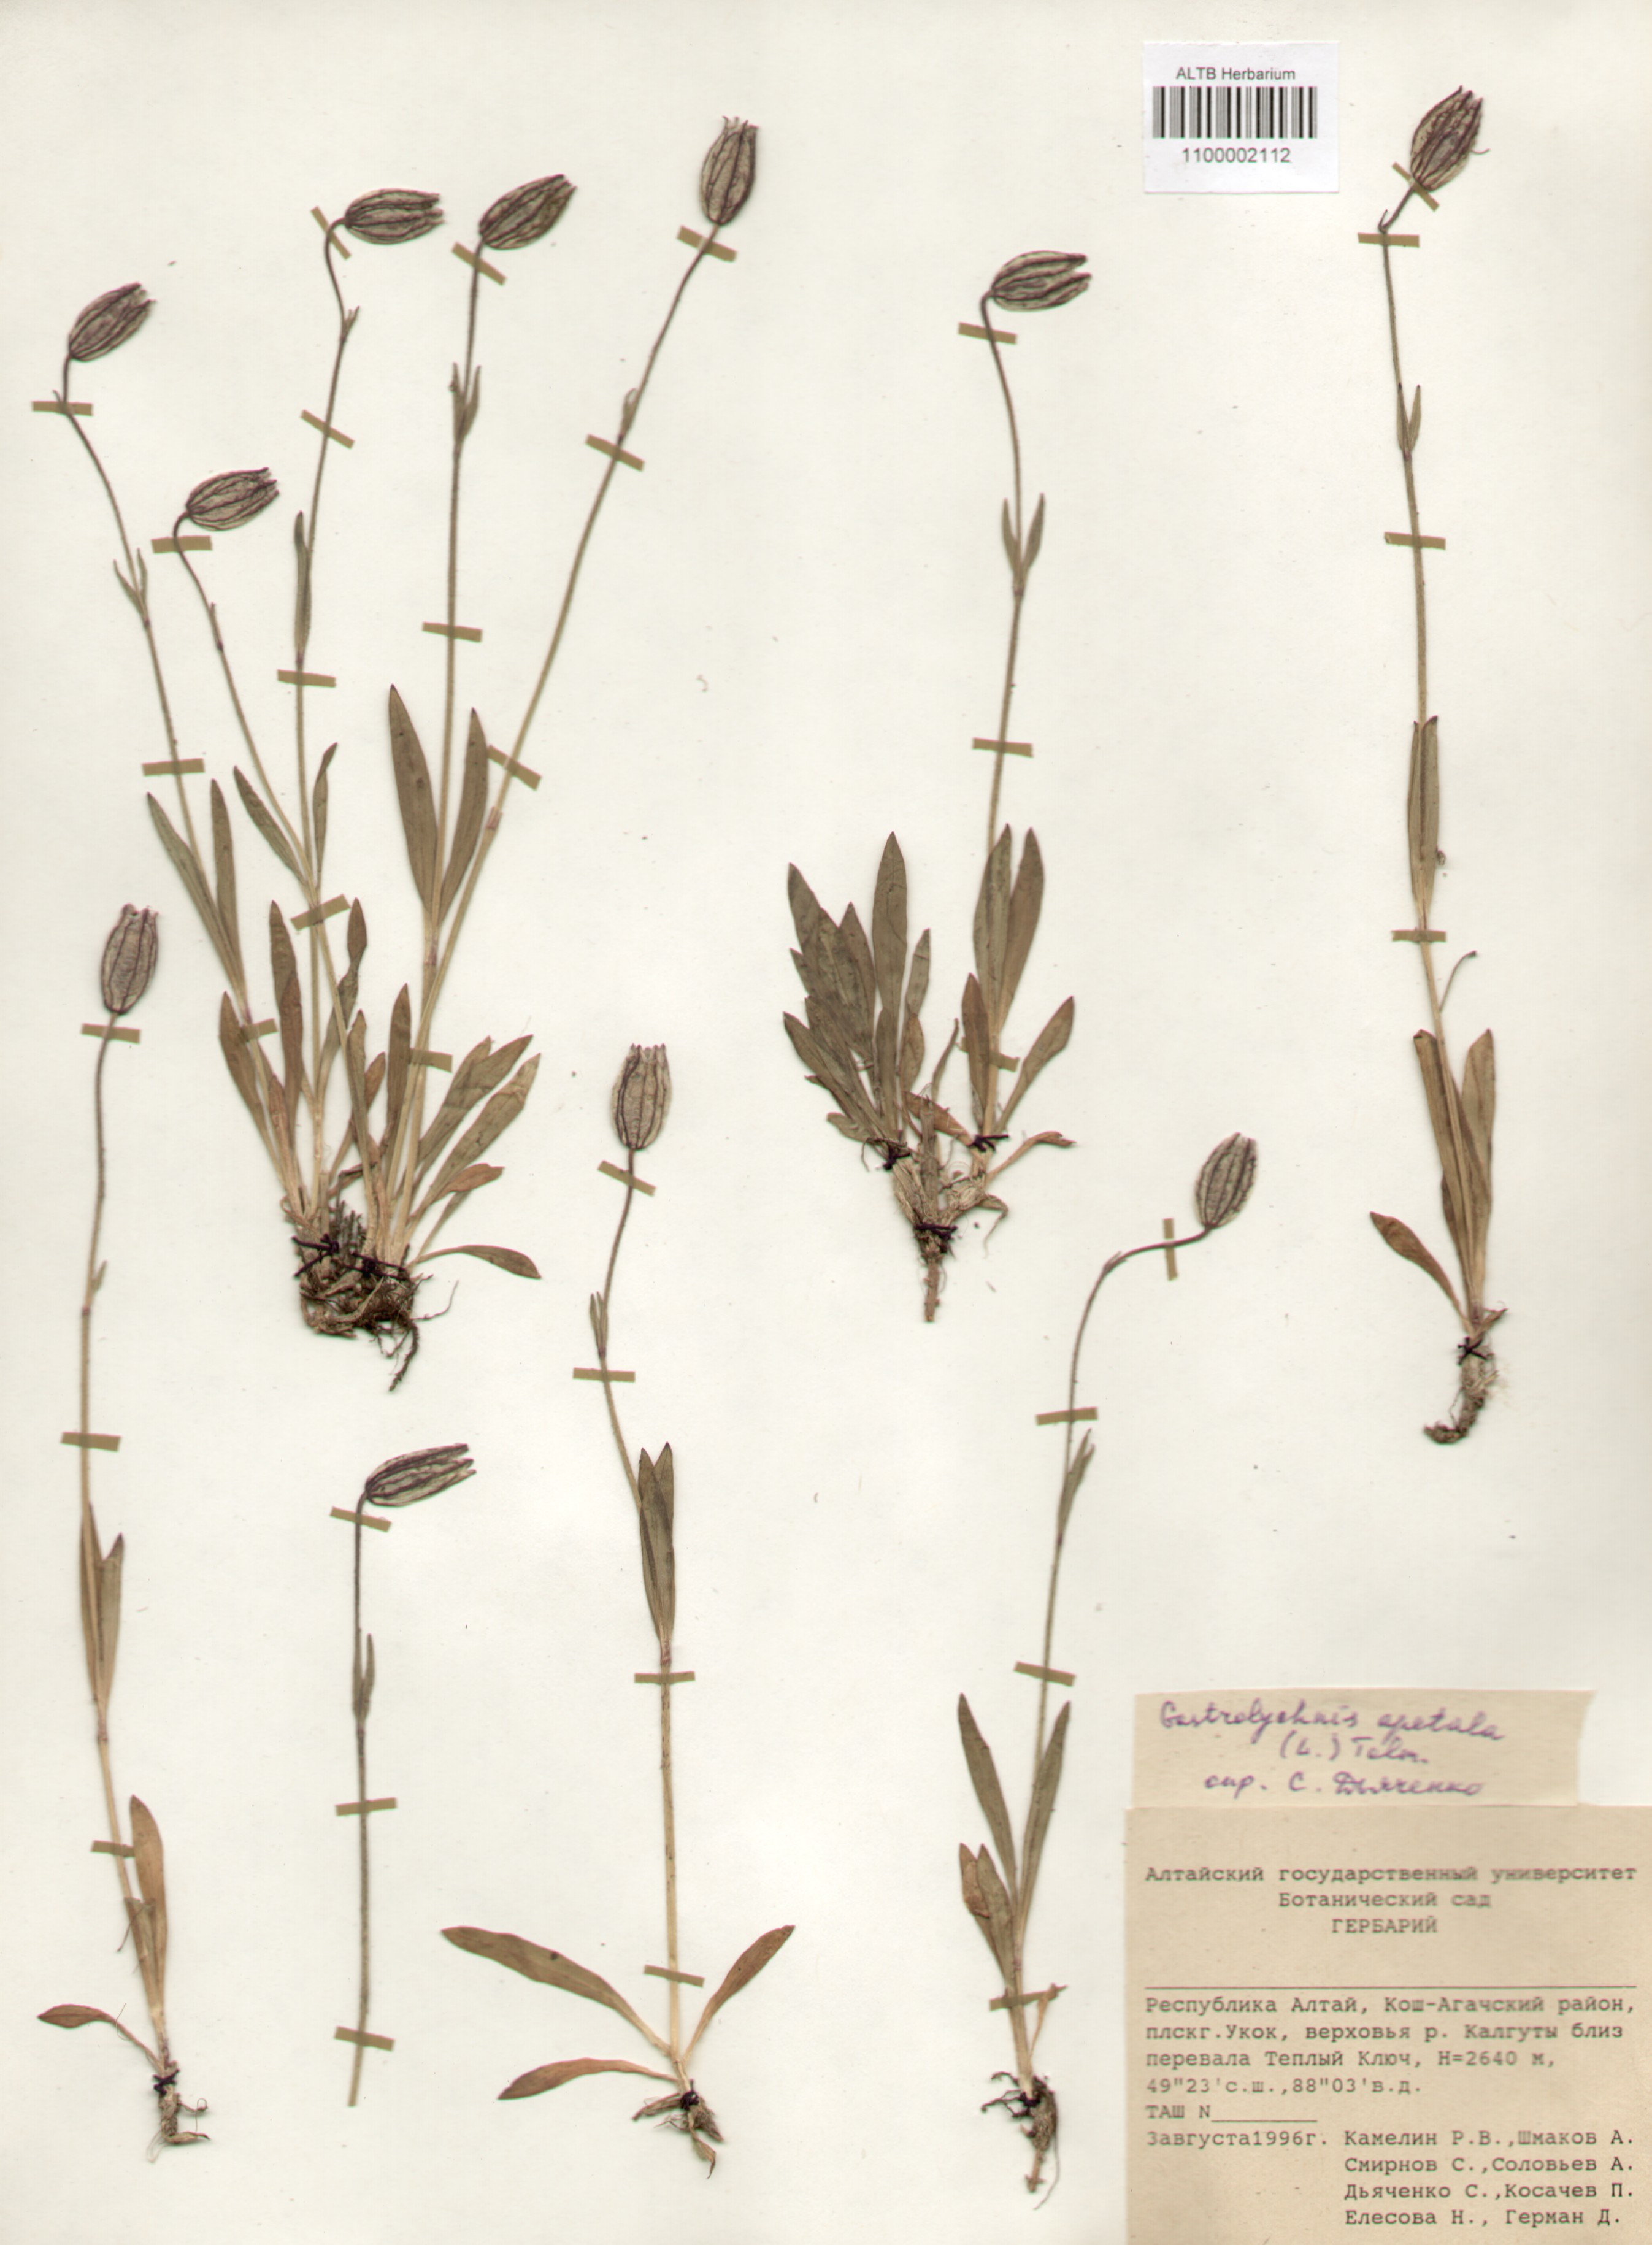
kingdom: Plantae
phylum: Tracheophyta
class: Magnoliopsida
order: Caryophyllales
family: Caryophyllaceae
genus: Silene
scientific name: Silene wahlbergella
